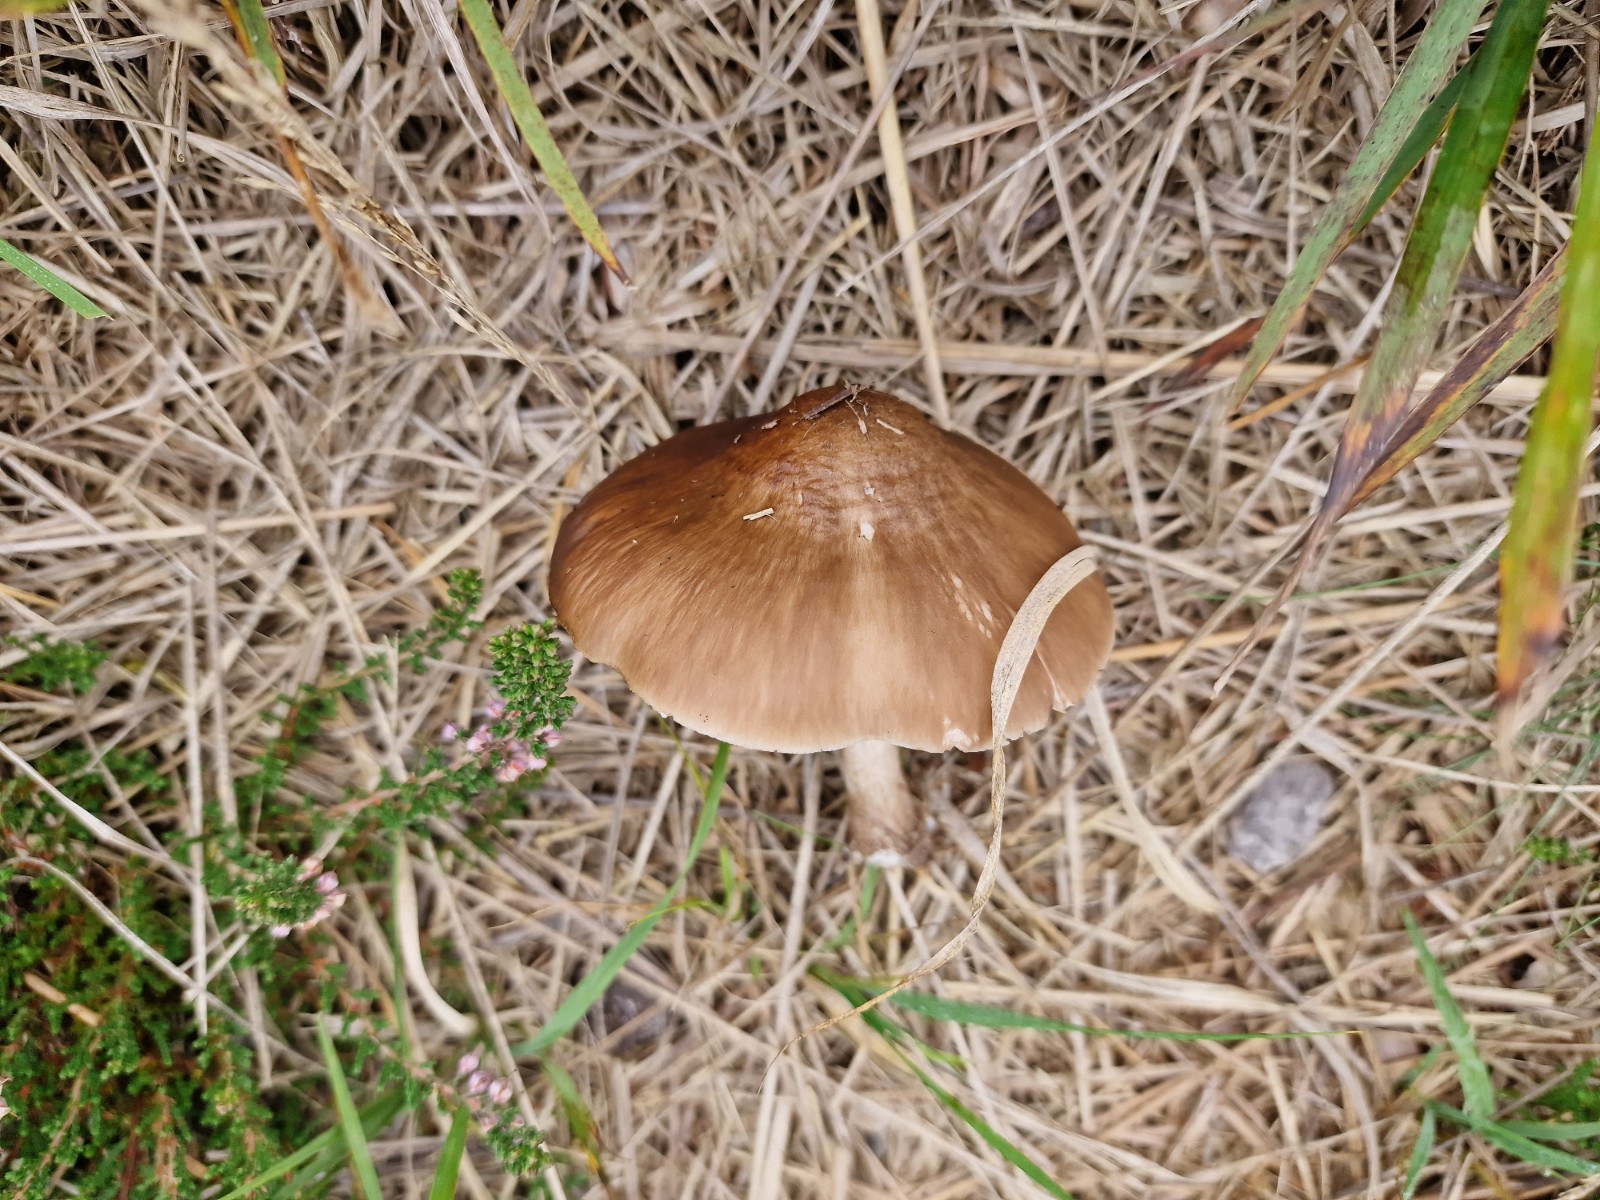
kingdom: Fungi
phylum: Basidiomycota
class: Agaricomycetes
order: Agaricales
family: Pluteaceae
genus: Pluteus
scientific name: Pluteus cervinus
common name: sodfarvet skærmhat
